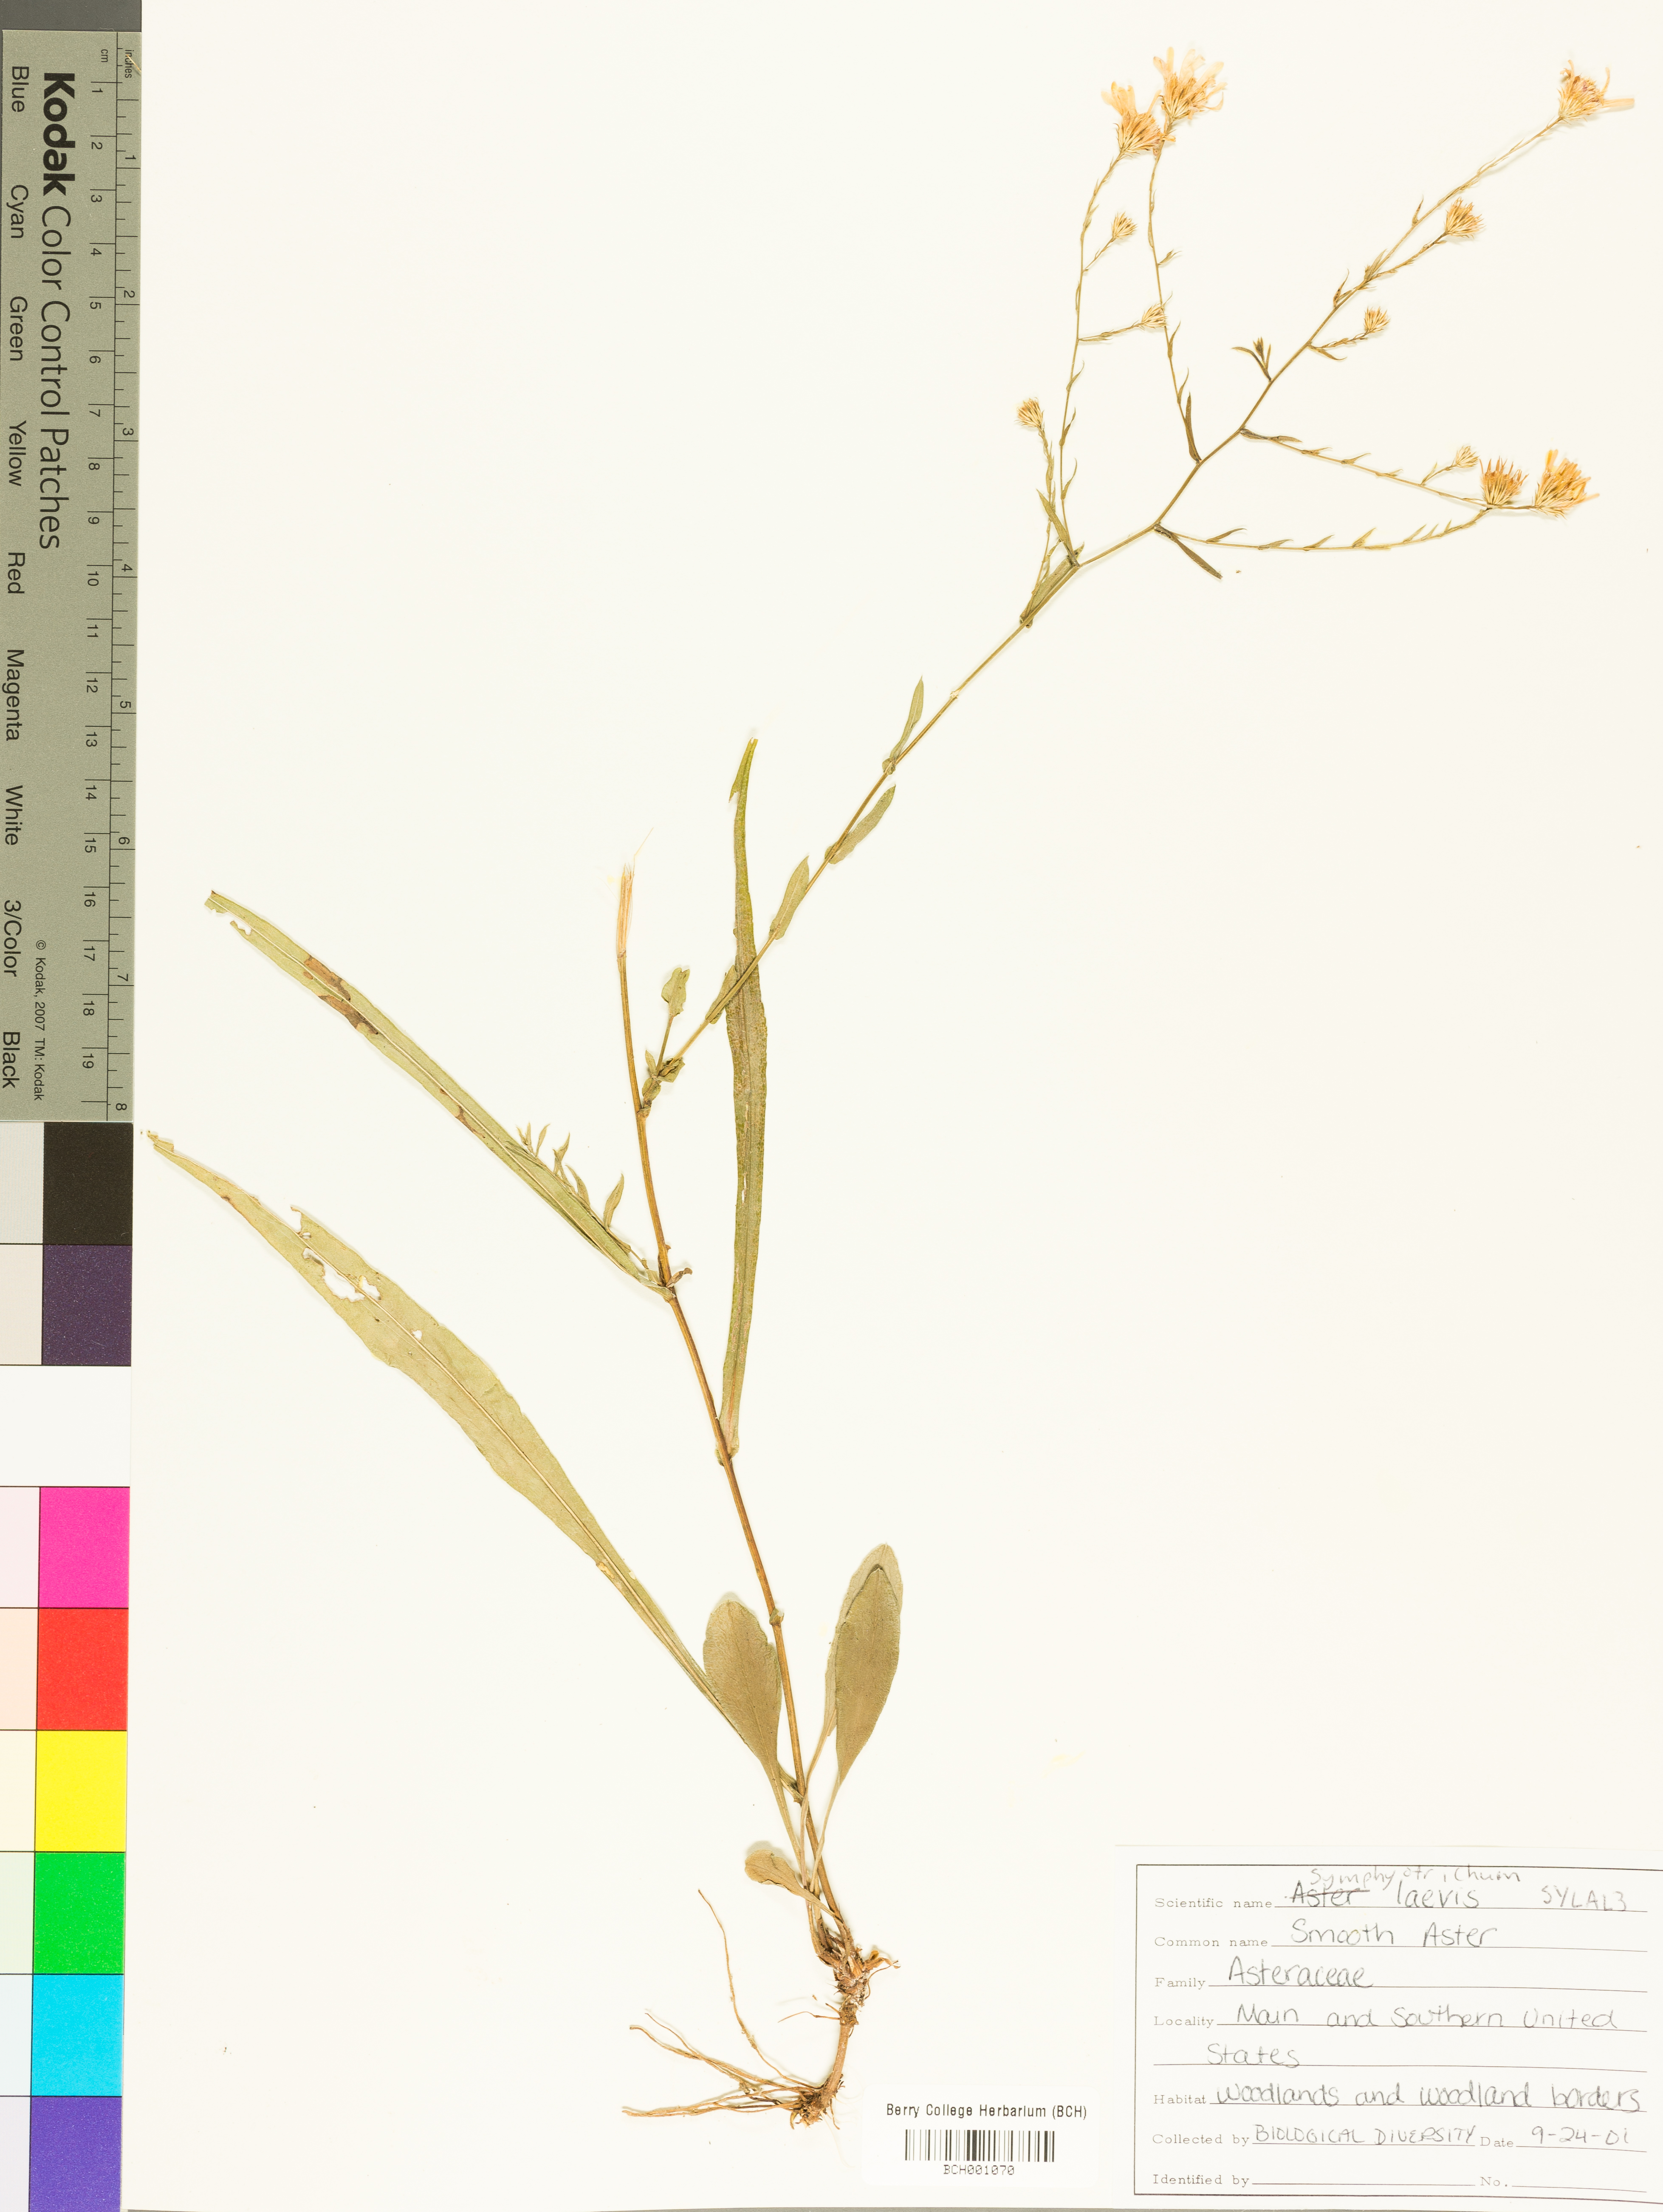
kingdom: Plantae
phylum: Tracheophyta
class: Magnoliopsida
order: Asterales
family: Asteraceae
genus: Symphyotrichum
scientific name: Symphyotrichum laeve
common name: Glaucous aster
